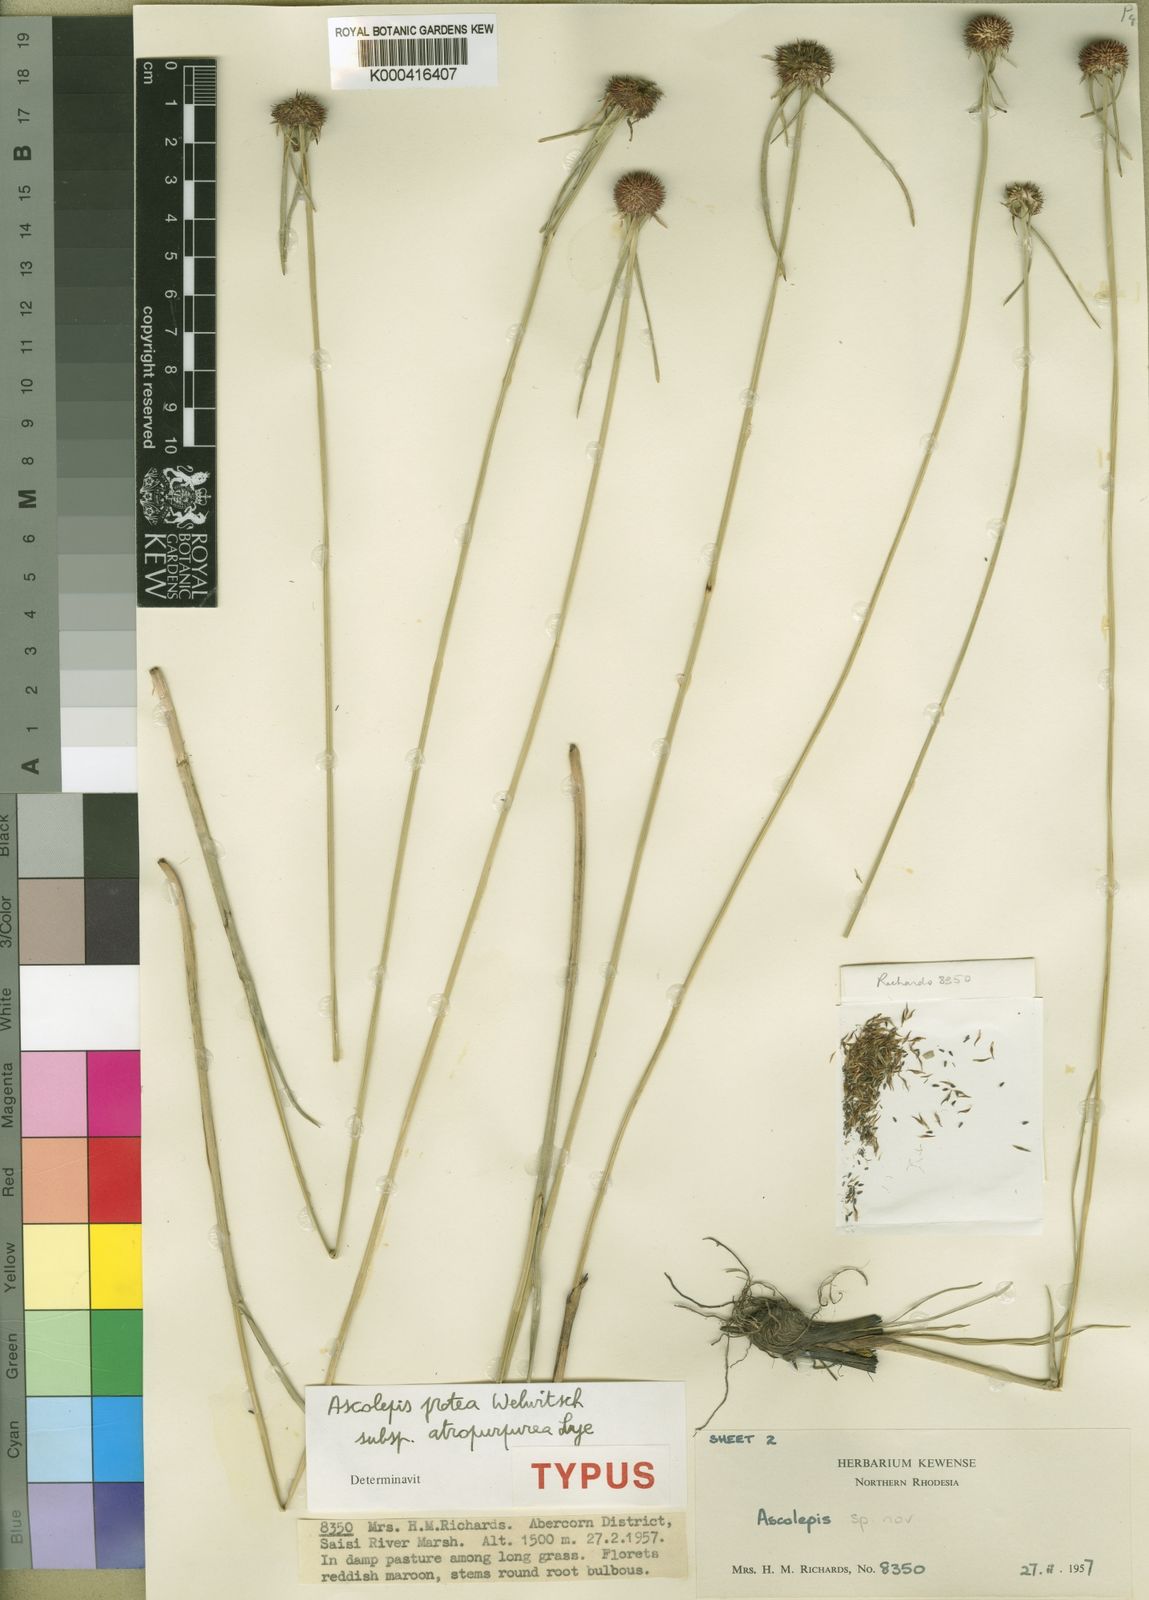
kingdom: Plantae
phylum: Tracheophyta
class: Liliopsida
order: Poales
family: Cyperaceae
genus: Cyperus
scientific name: Cyperus proteus
